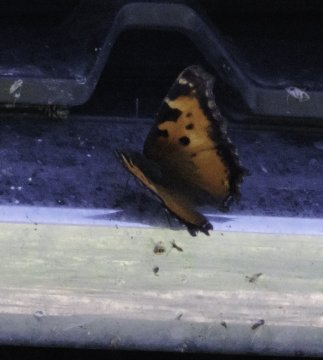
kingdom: Animalia
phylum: Arthropoda
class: Insecta
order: Lepidoptera
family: Nymphalidae
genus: Nymphalis
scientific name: Nymphalis californica
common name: California Tortoiseshell
